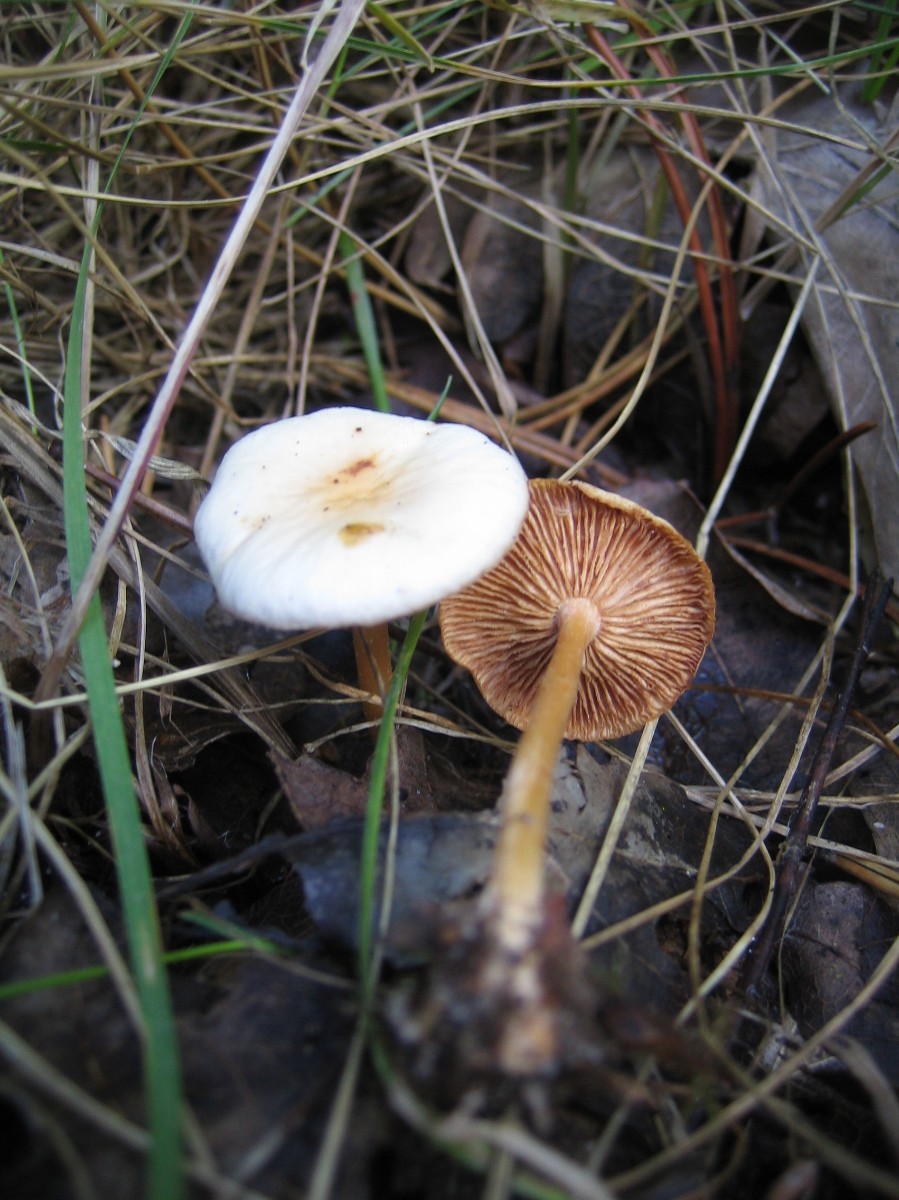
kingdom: Fungi
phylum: Basidiomycota
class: Agaricomycetes
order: Agaricales
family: Omphalotaceae
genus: Gymnopus
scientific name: Gymnopus dryophilus
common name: løv-fladhat
